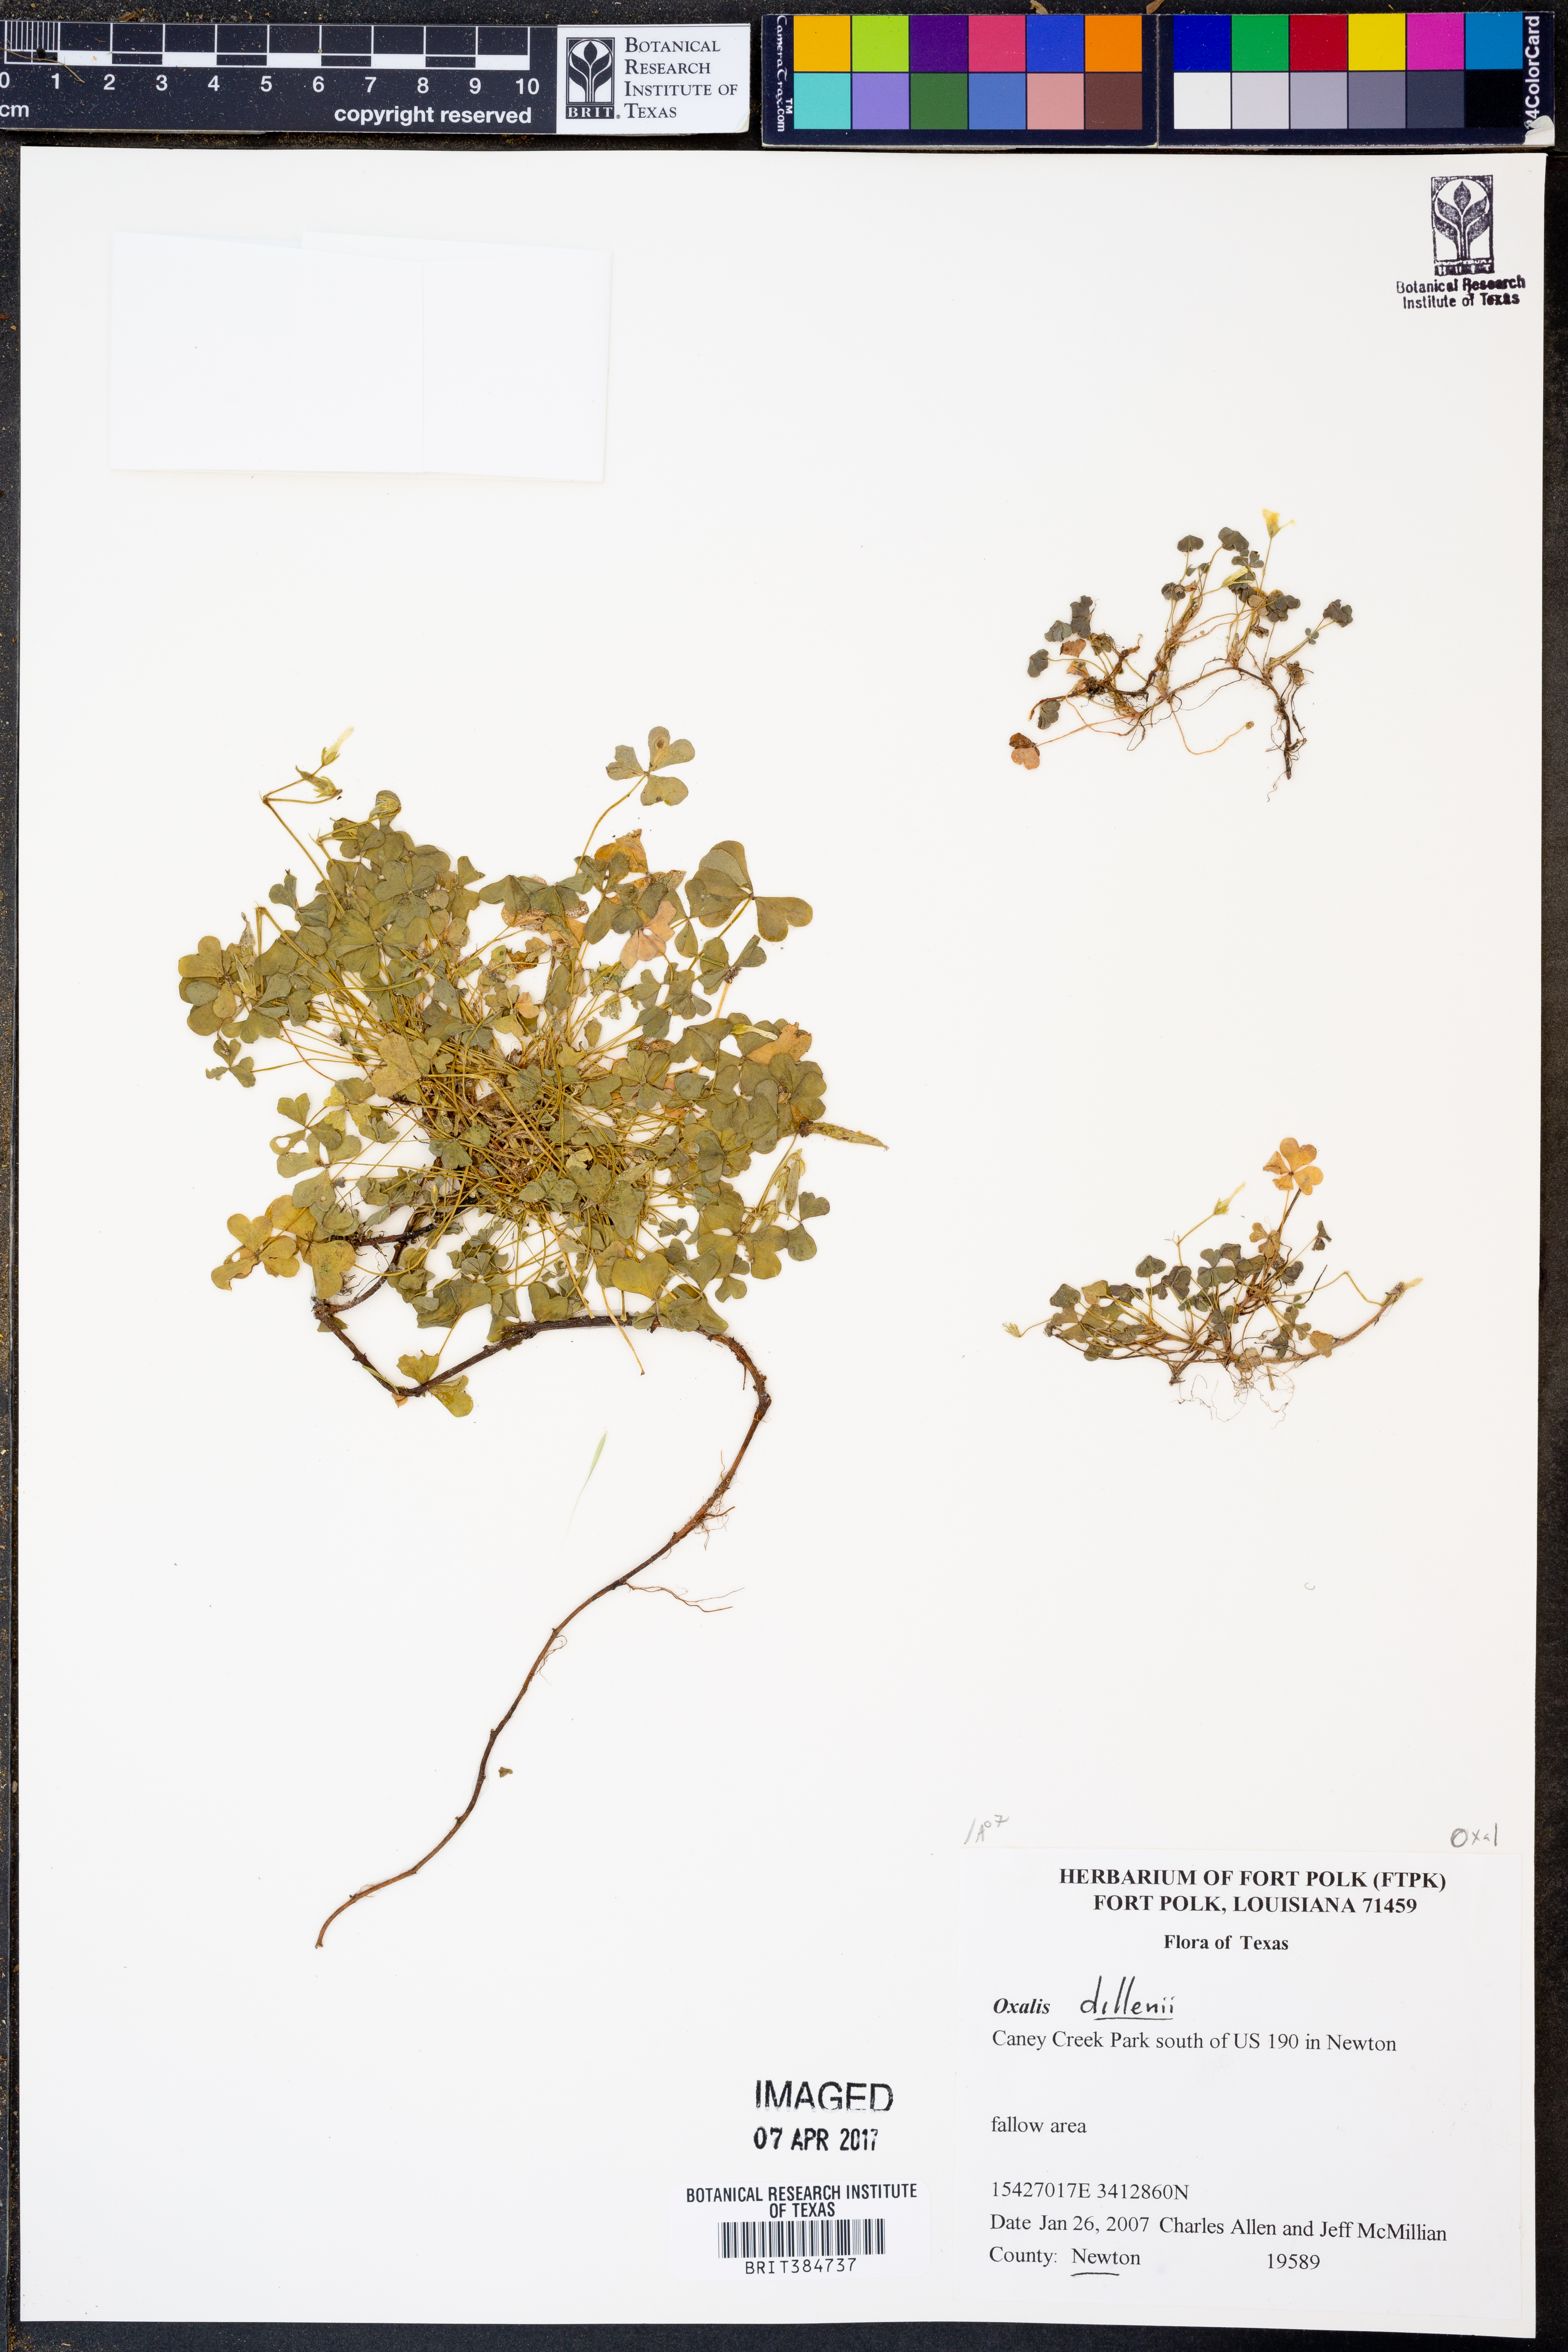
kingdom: Plantae
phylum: Tracheophyta
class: Magnoliopsida
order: Oxalidales
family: Oxalidaceae
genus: Oxalis
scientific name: Oxalis dillenii
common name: Sussex yellow-sorrel
